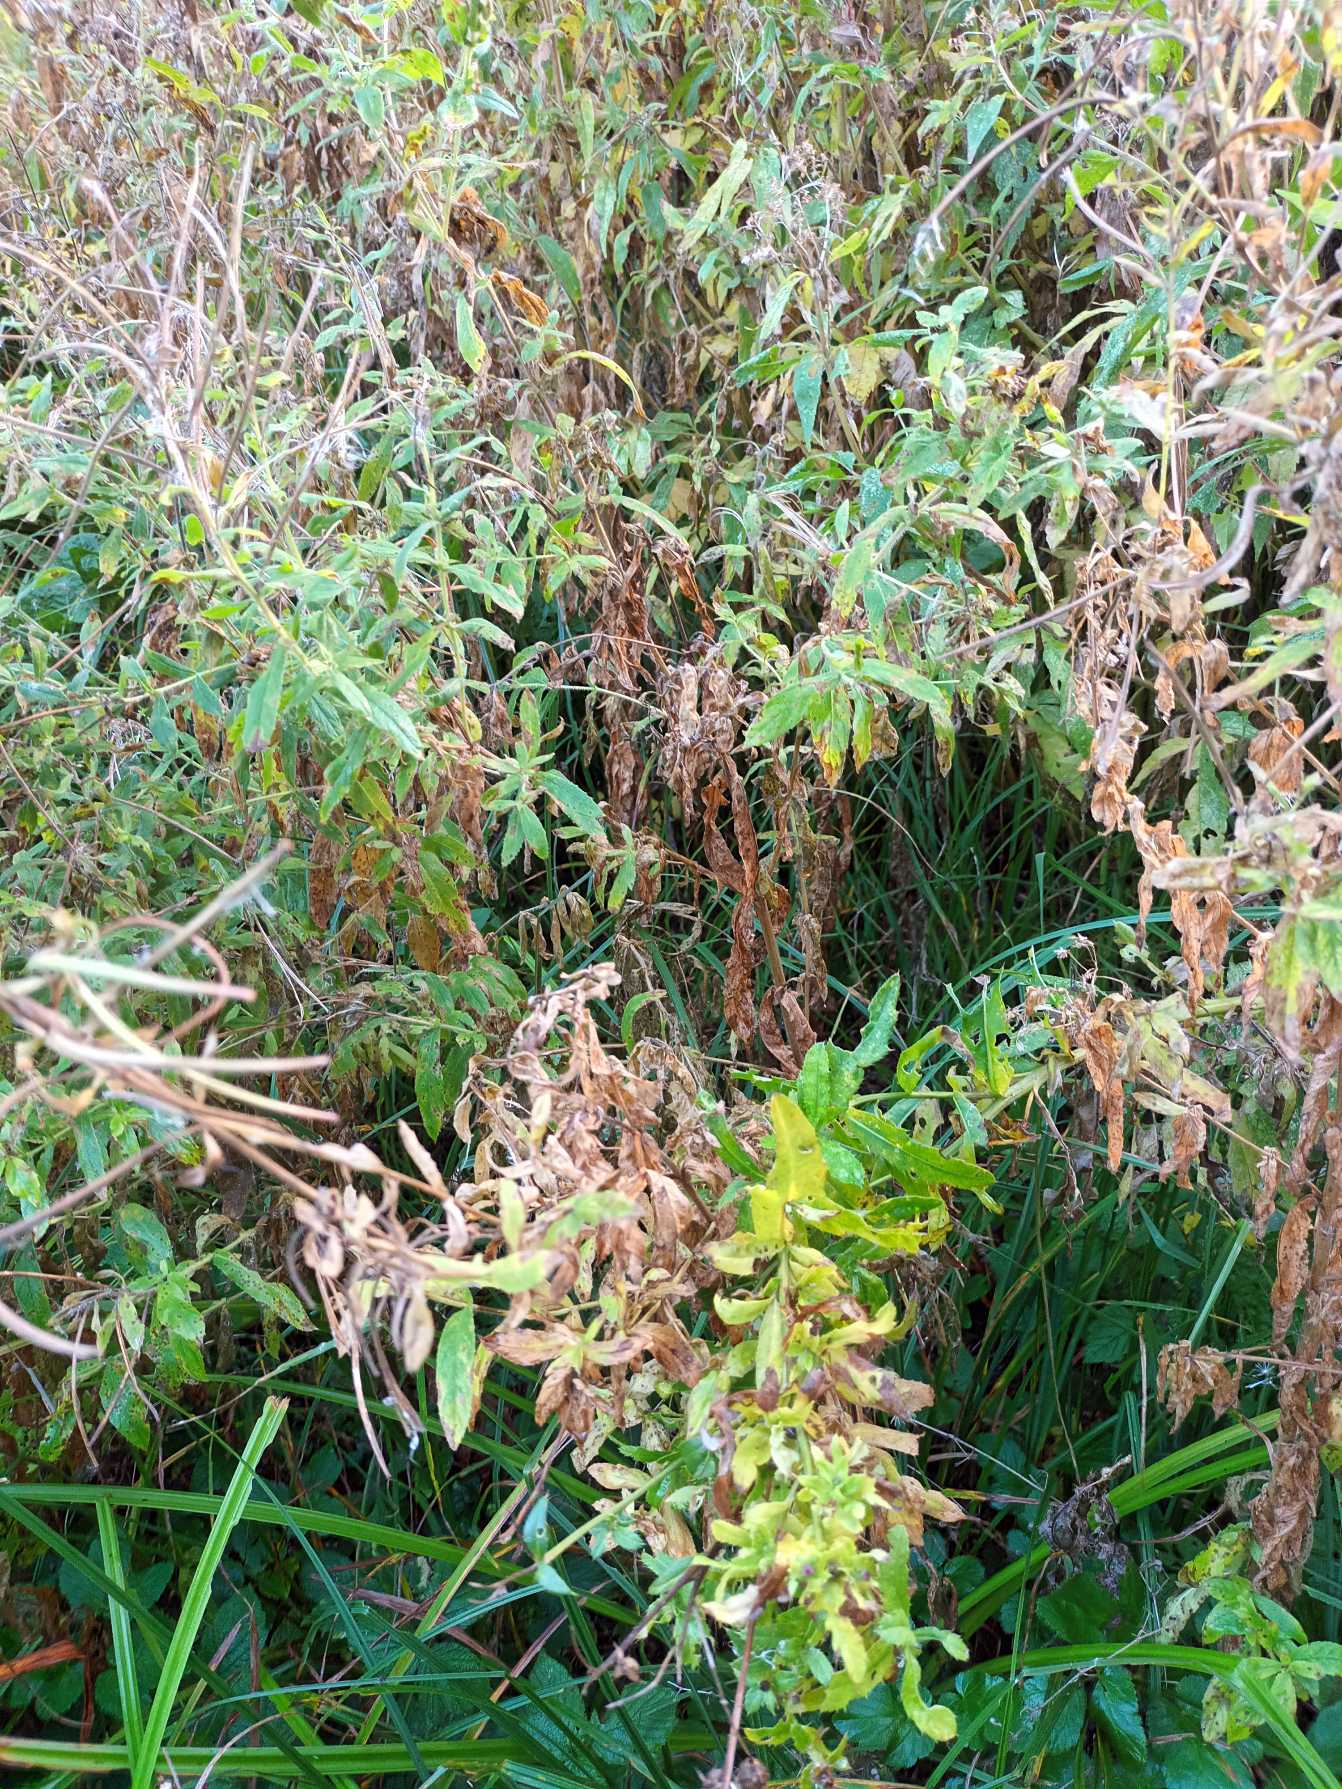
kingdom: Plantae
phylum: Tracheophyta
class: Magnoliopsida
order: Myrtales
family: Onagraceae
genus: Epilobium
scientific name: Epilobium hirsutum
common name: Lådden dueurt
